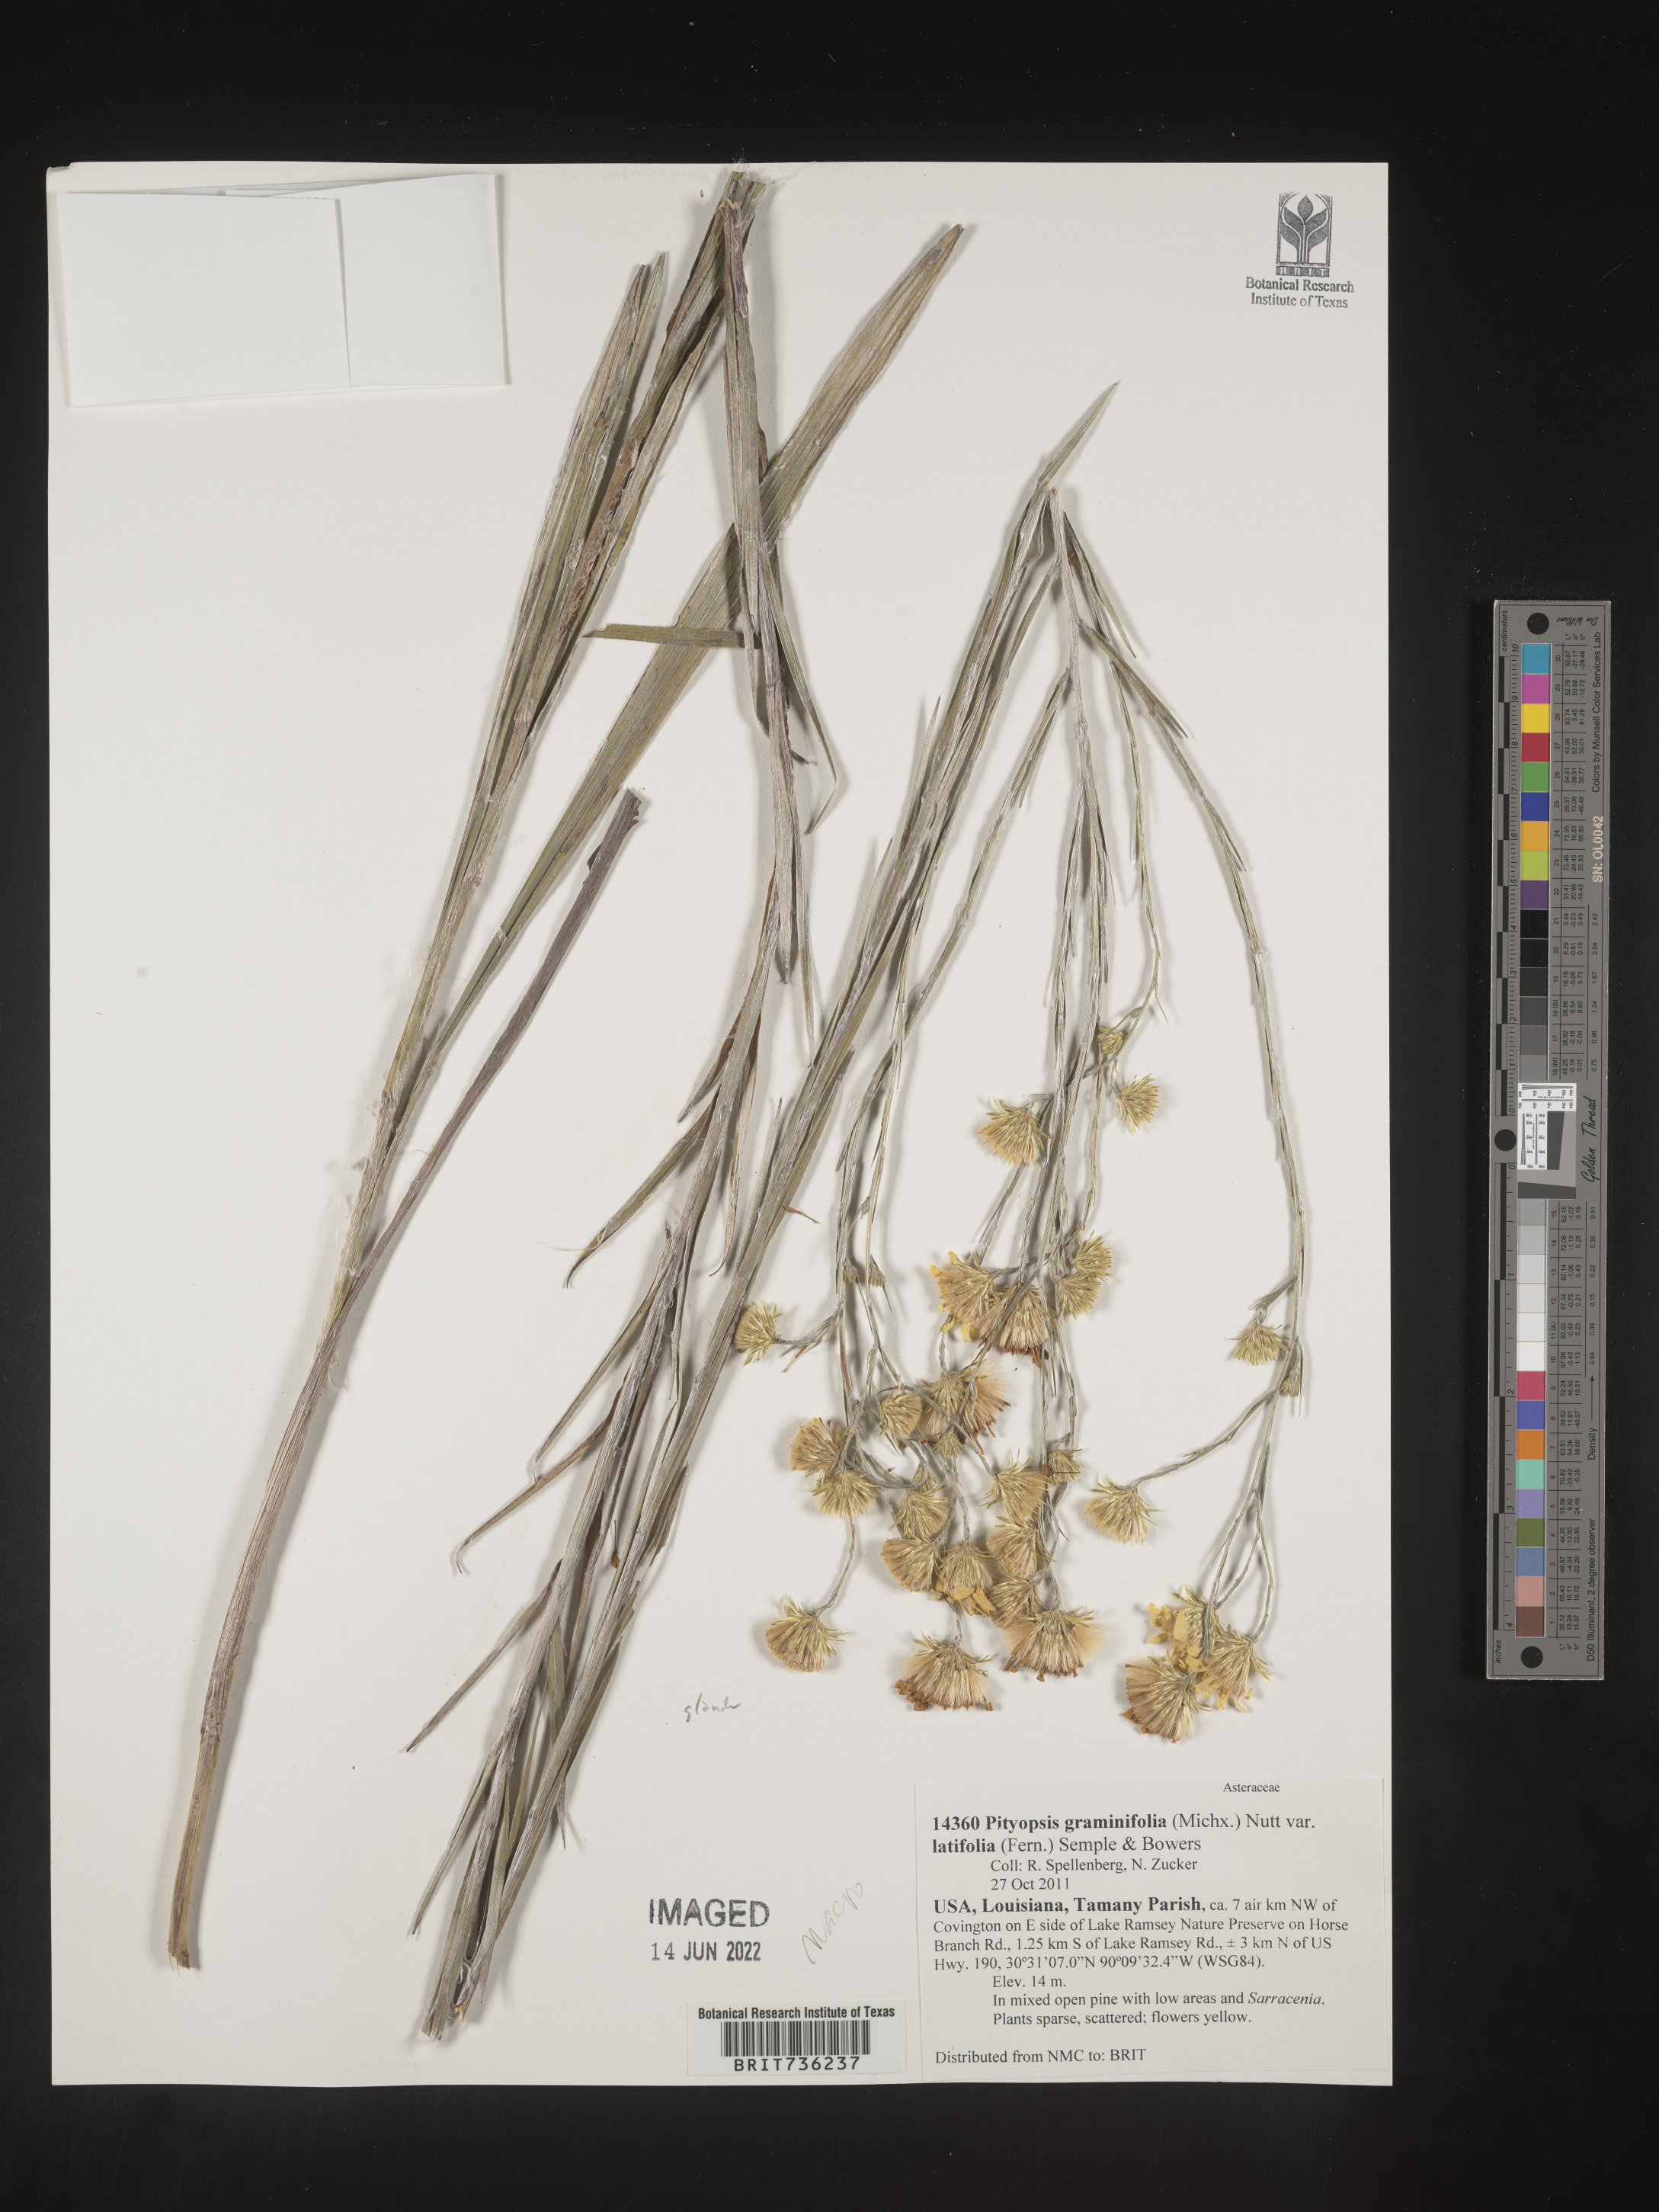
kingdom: Plantae
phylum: Tracheophyta
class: Magnoliopsida
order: Asterales
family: Asteraceae
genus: Pityopsis
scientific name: Pityopsis graminifolia
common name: Grass-leaf golden-aster
